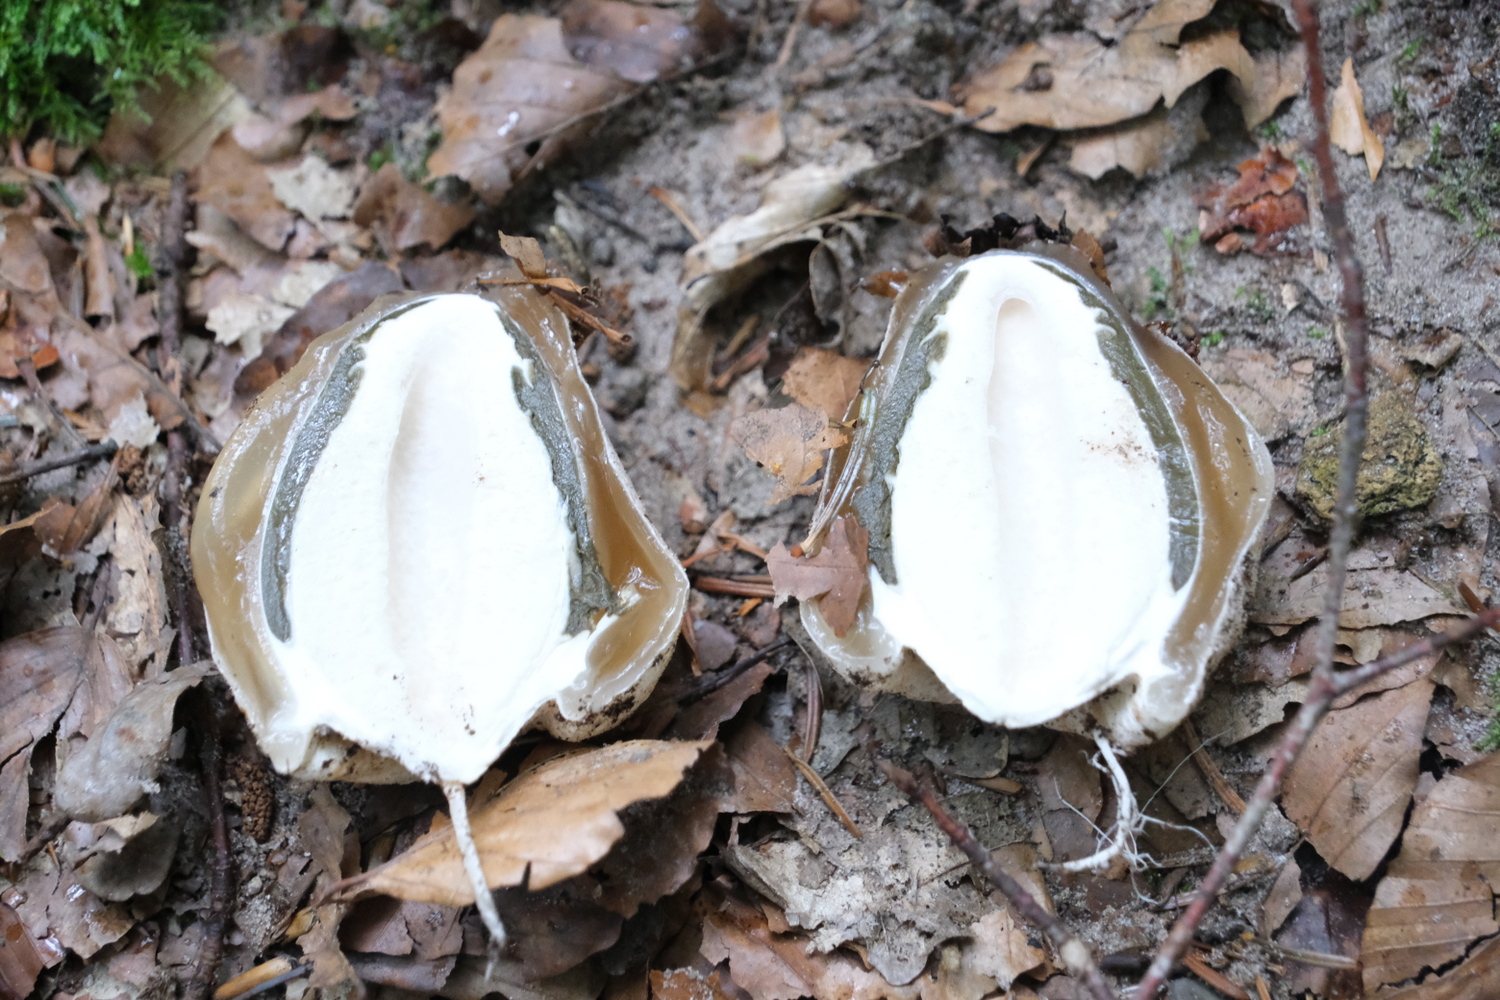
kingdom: Fungi
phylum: Basidiomycota
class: Agaricomycetes
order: Phallales
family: Phallaceae
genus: Phallus
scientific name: Phallus impudicus
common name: almindelig stinksvamp
